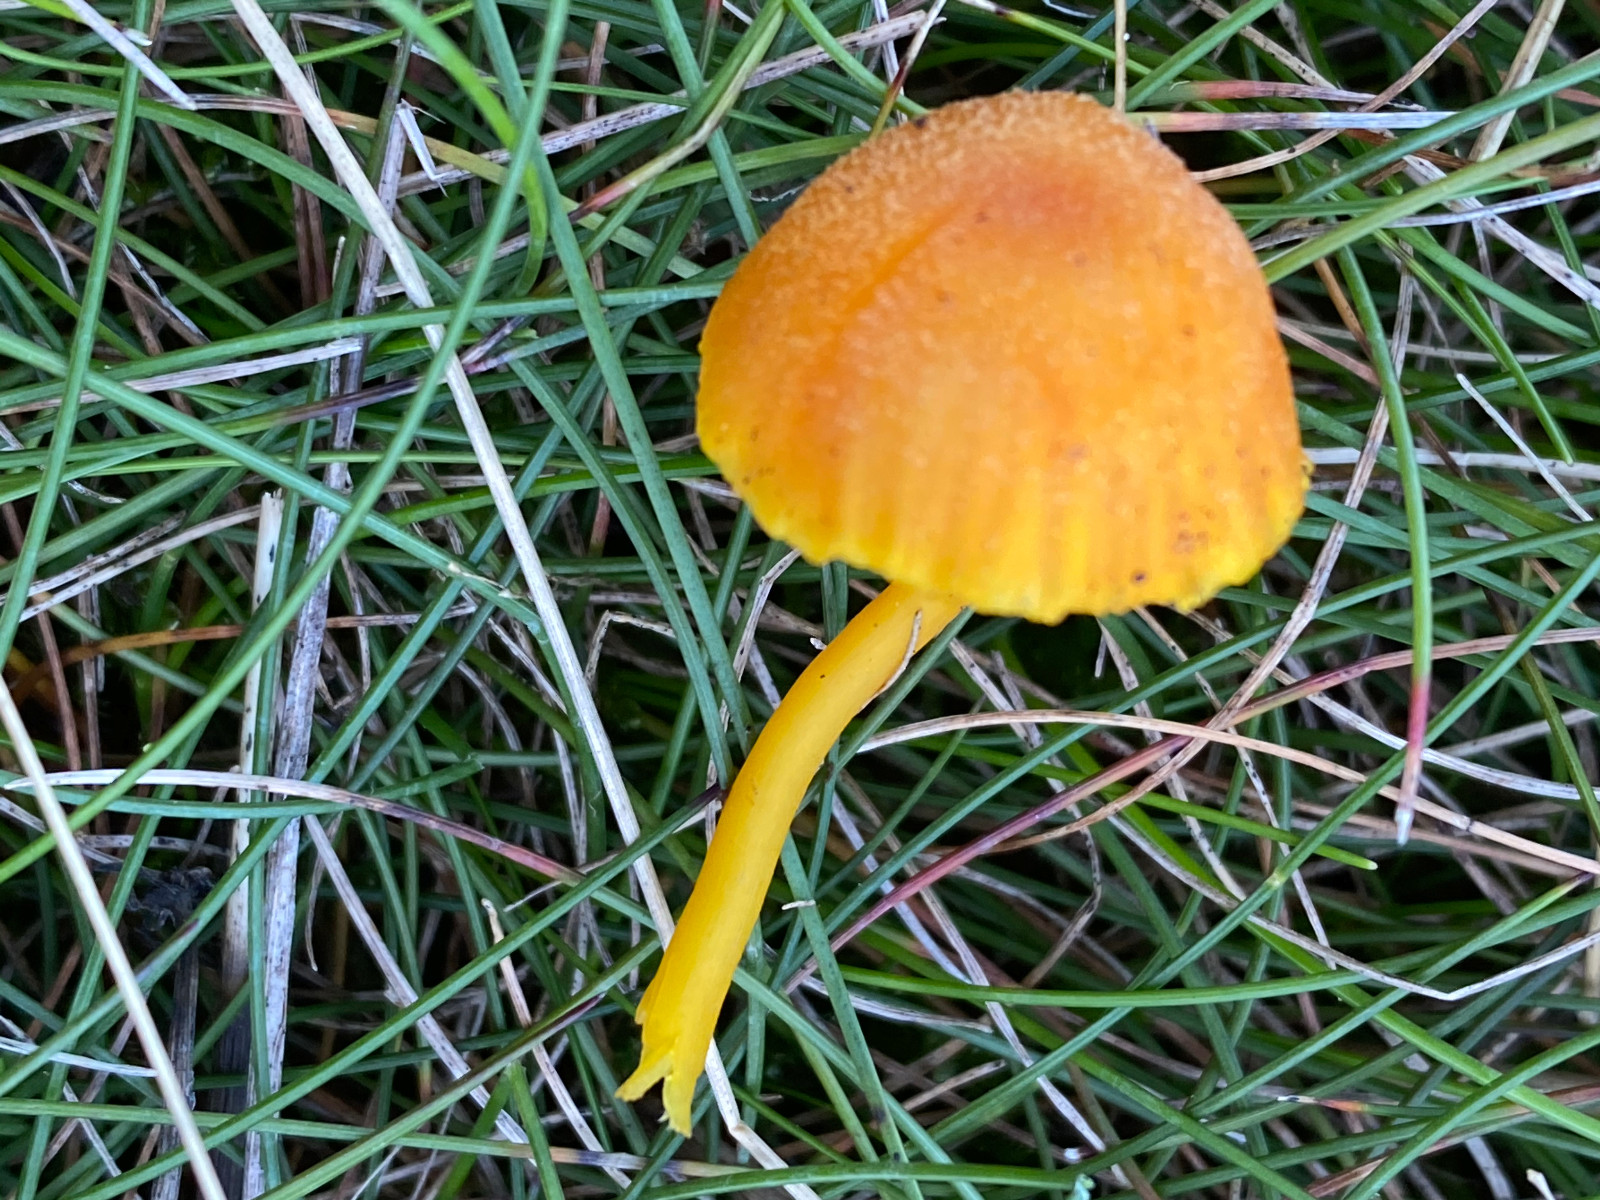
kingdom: Fungi
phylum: Basidiomycota
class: Agaricomycetes
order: Agaricales
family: Hygrophoraceae
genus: Hygrocybe
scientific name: Hygrocybe miniata
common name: mønje-vokshat
